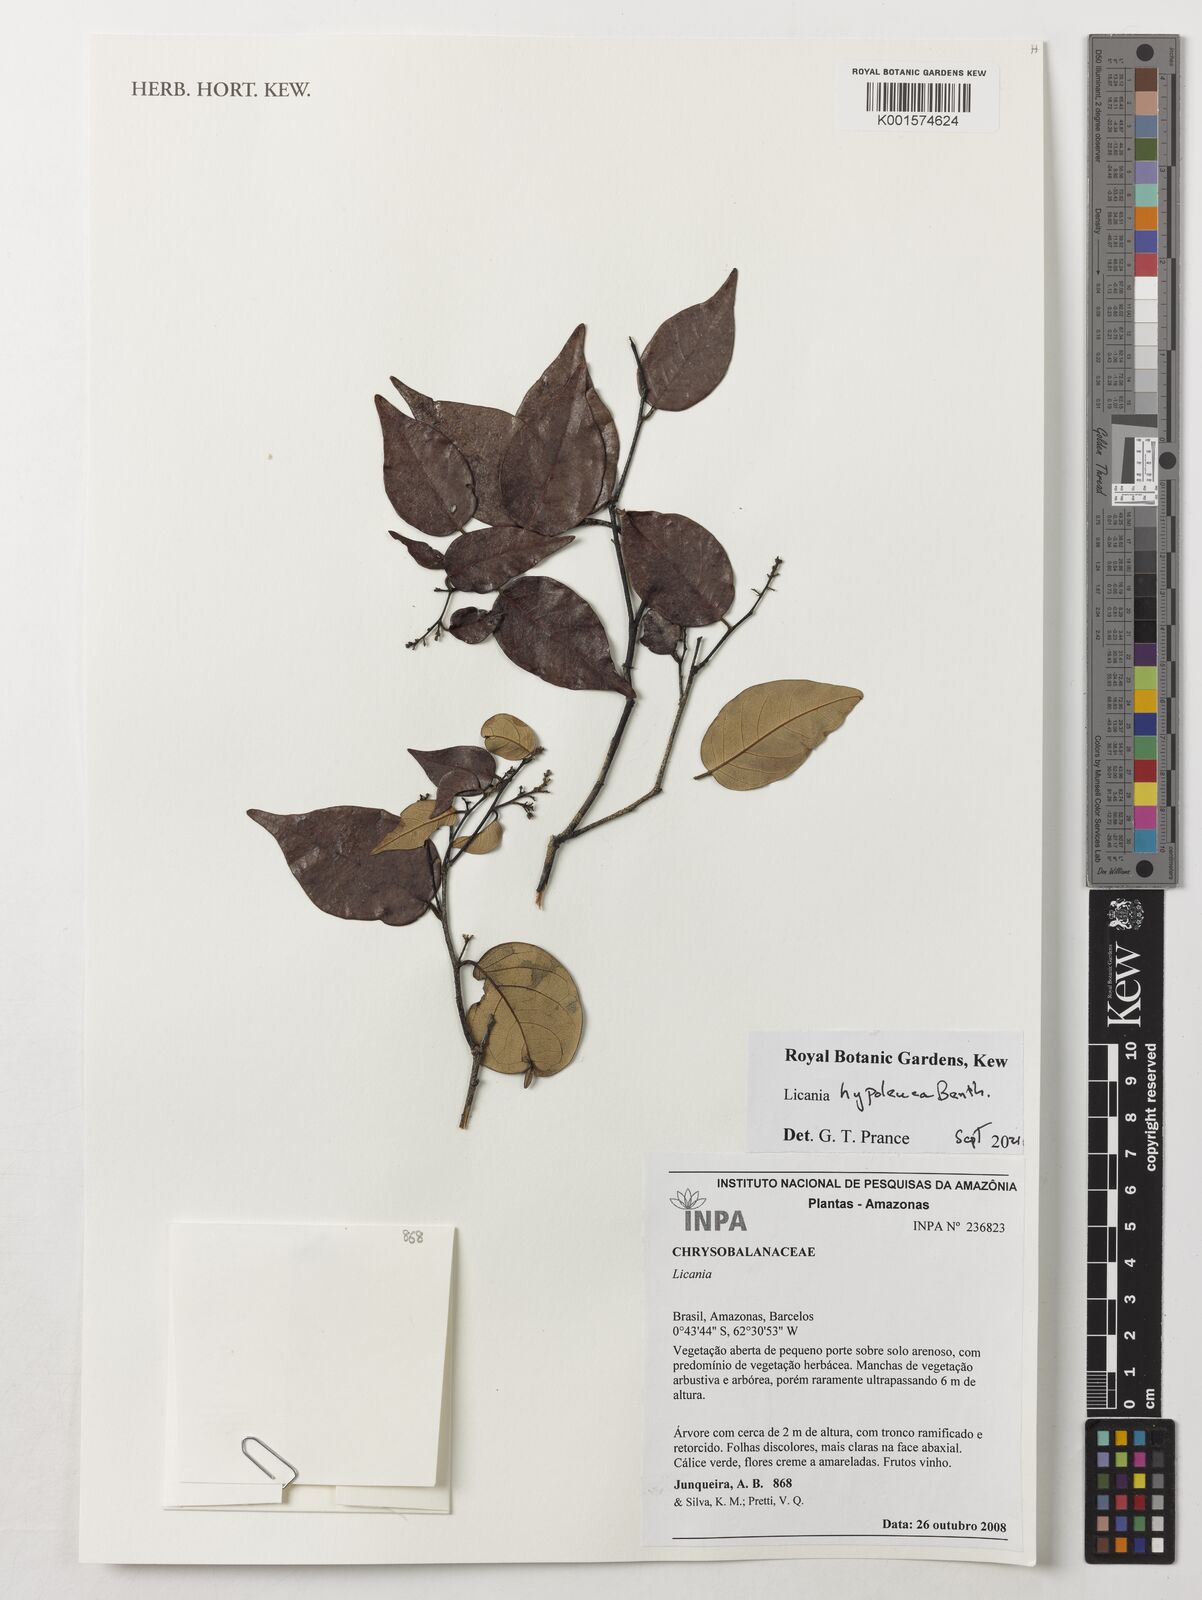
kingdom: Plantae
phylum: Tracheophyta
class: Magnoliopsida
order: Malpighiales
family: Chrysobalanaceae
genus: Licania
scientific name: Licania hypoleuca
